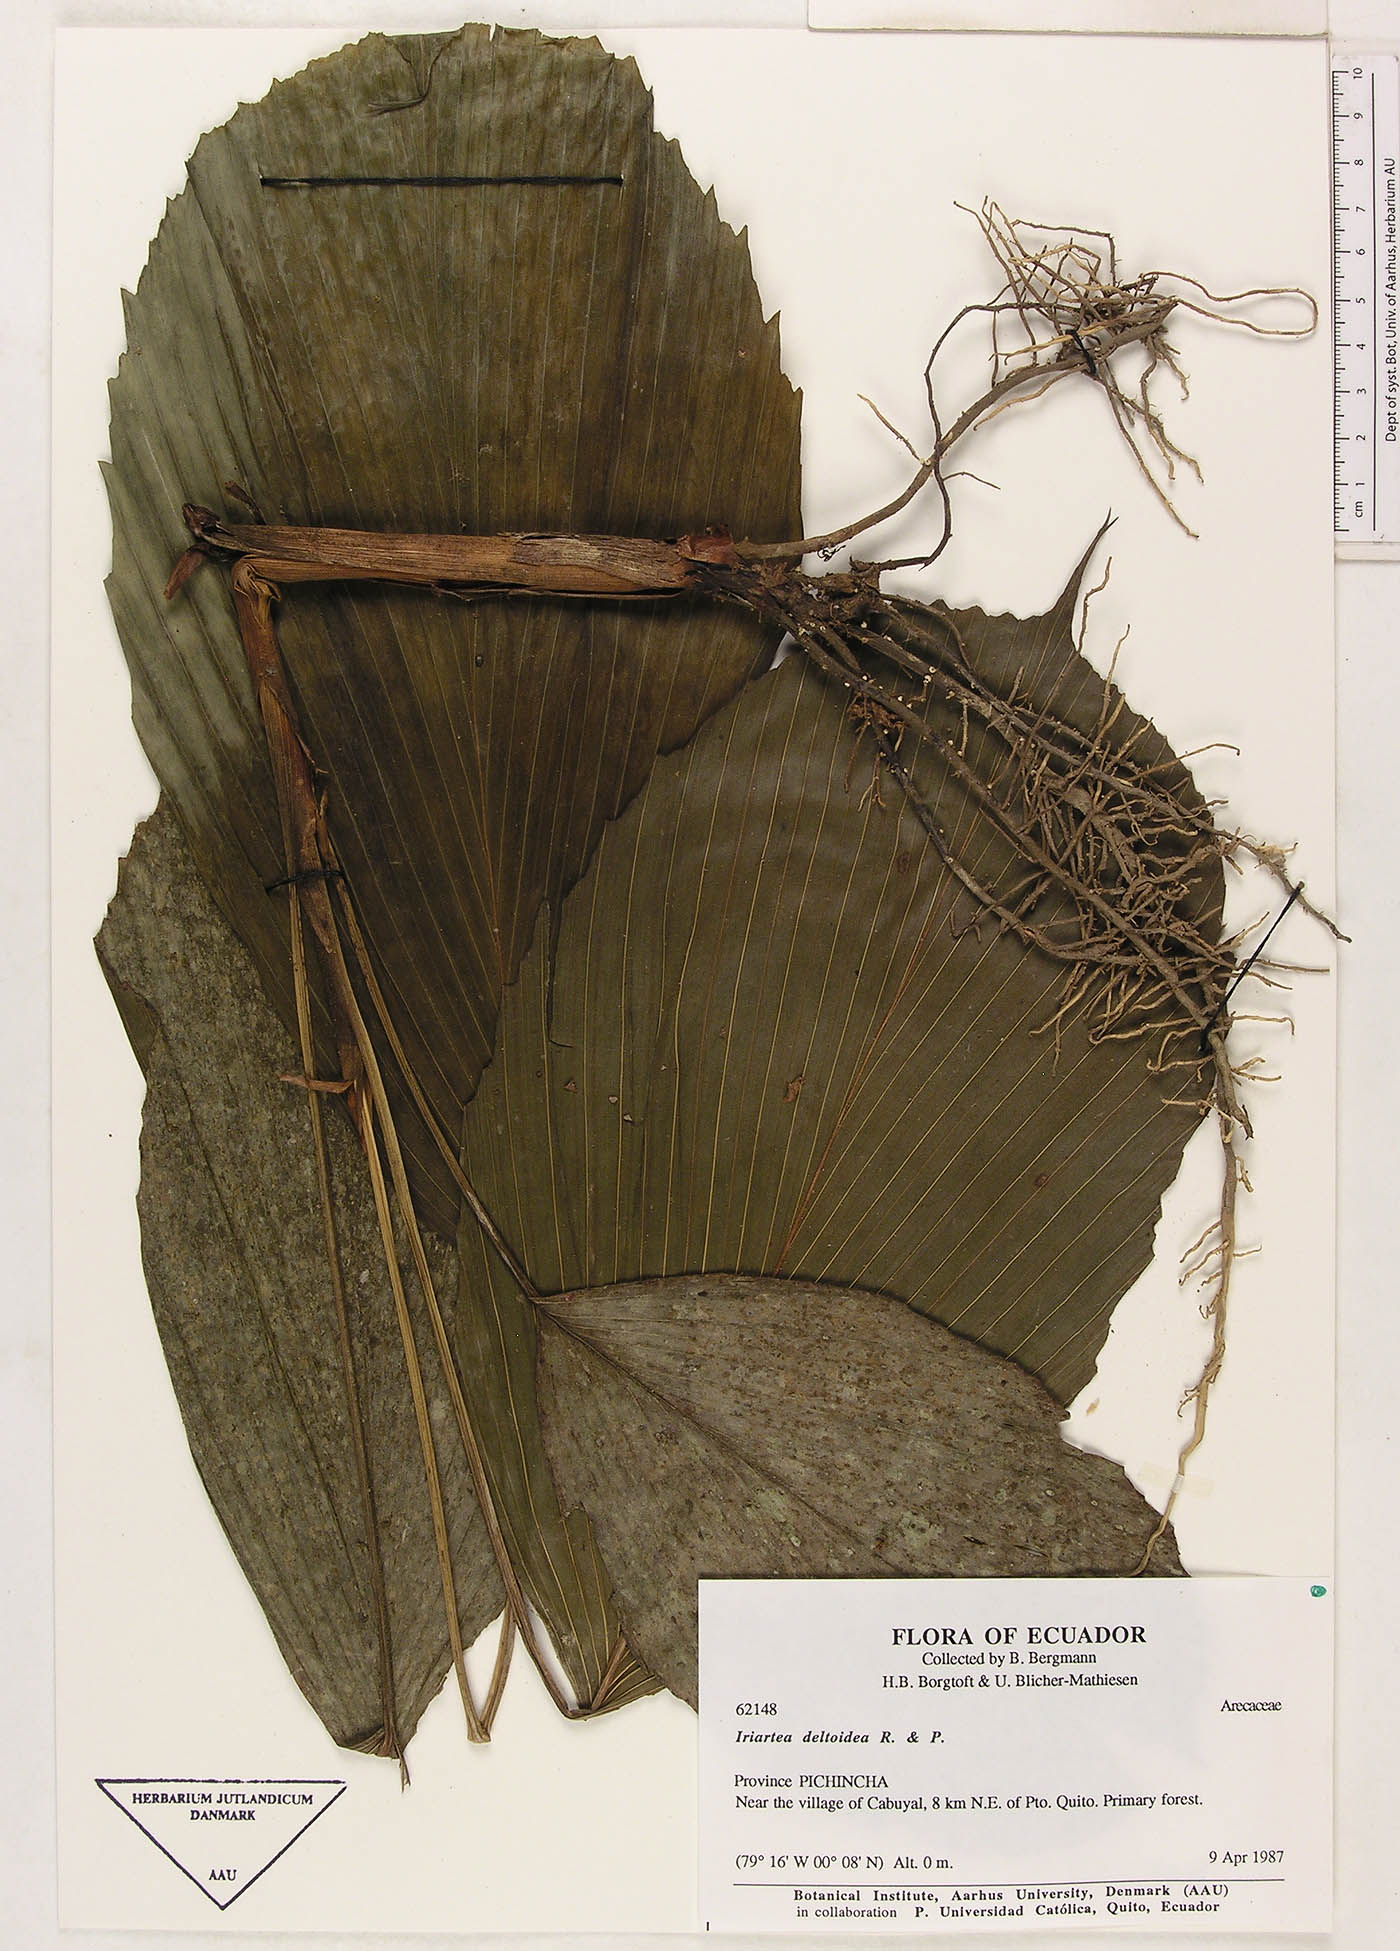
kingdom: Plantae
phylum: Tracheophyta
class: Liliopsida
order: Arecales
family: Arecaceae
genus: Iriartea
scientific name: Iriartea deltoidea
